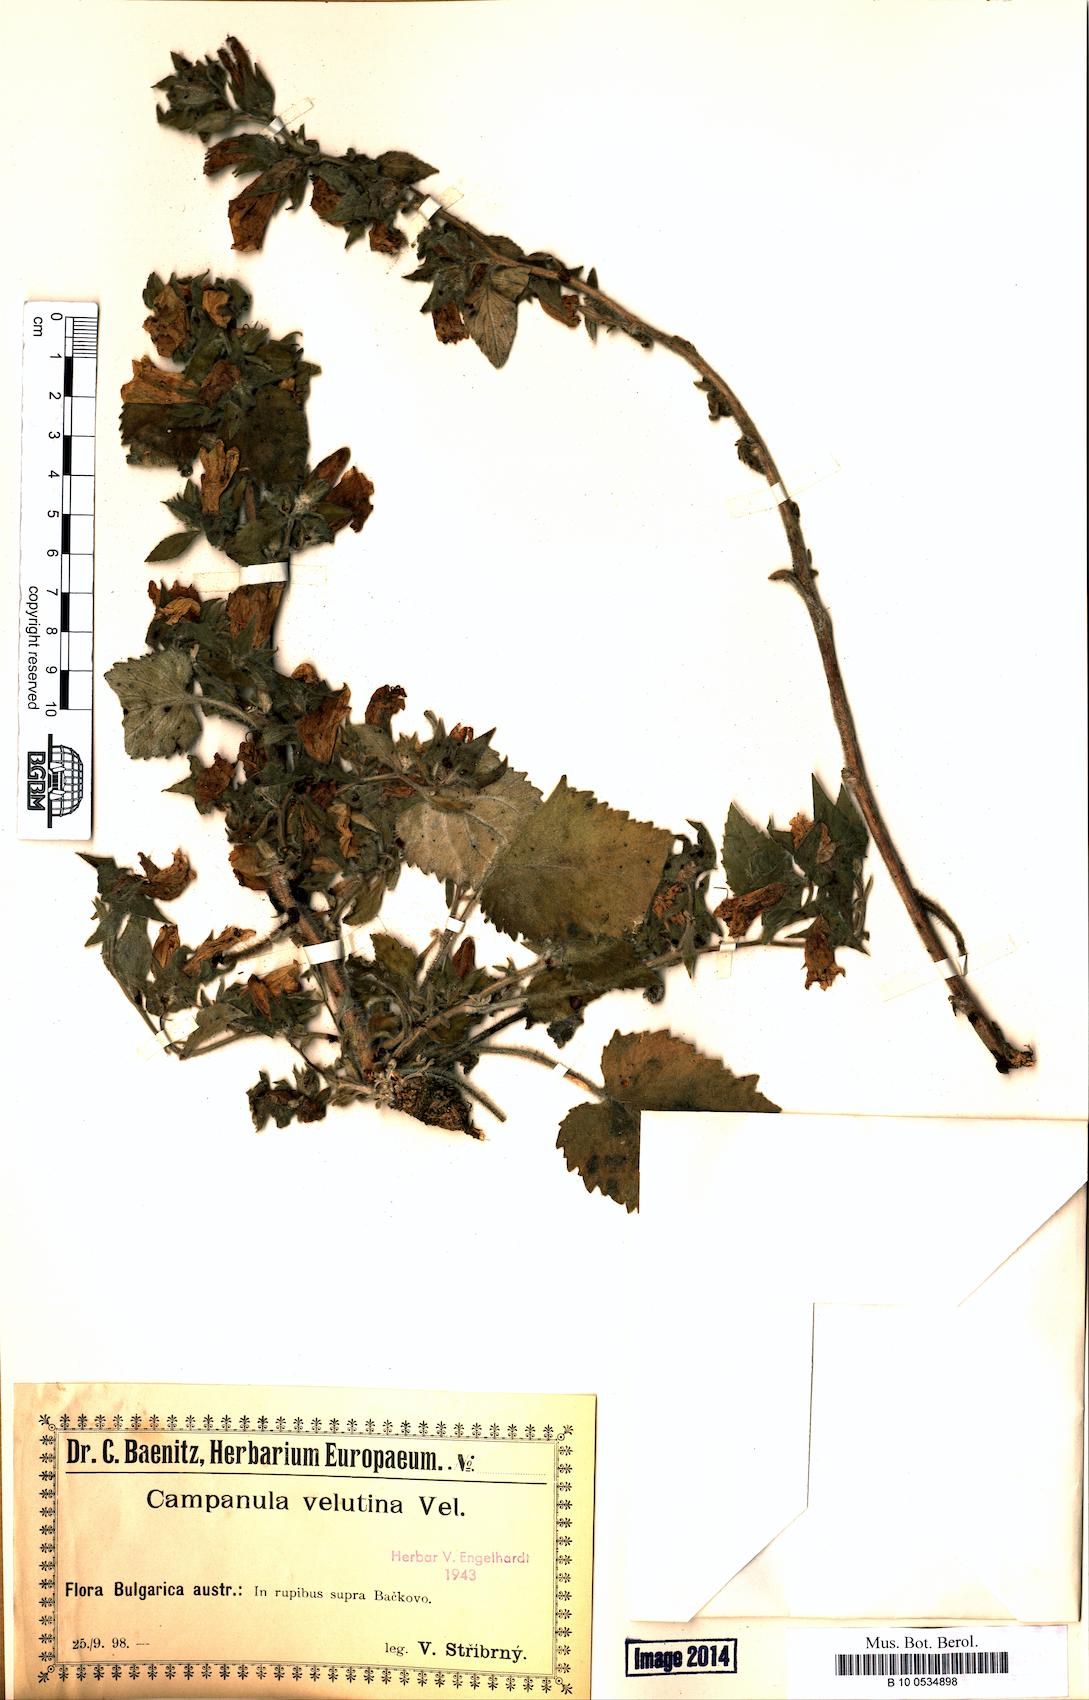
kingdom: Plantae
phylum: Tracheophyta
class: Magnoliopsida
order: Asterales
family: Campanulaceae
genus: Campanula
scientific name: Campanula lanata
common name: Woolly bellflower
